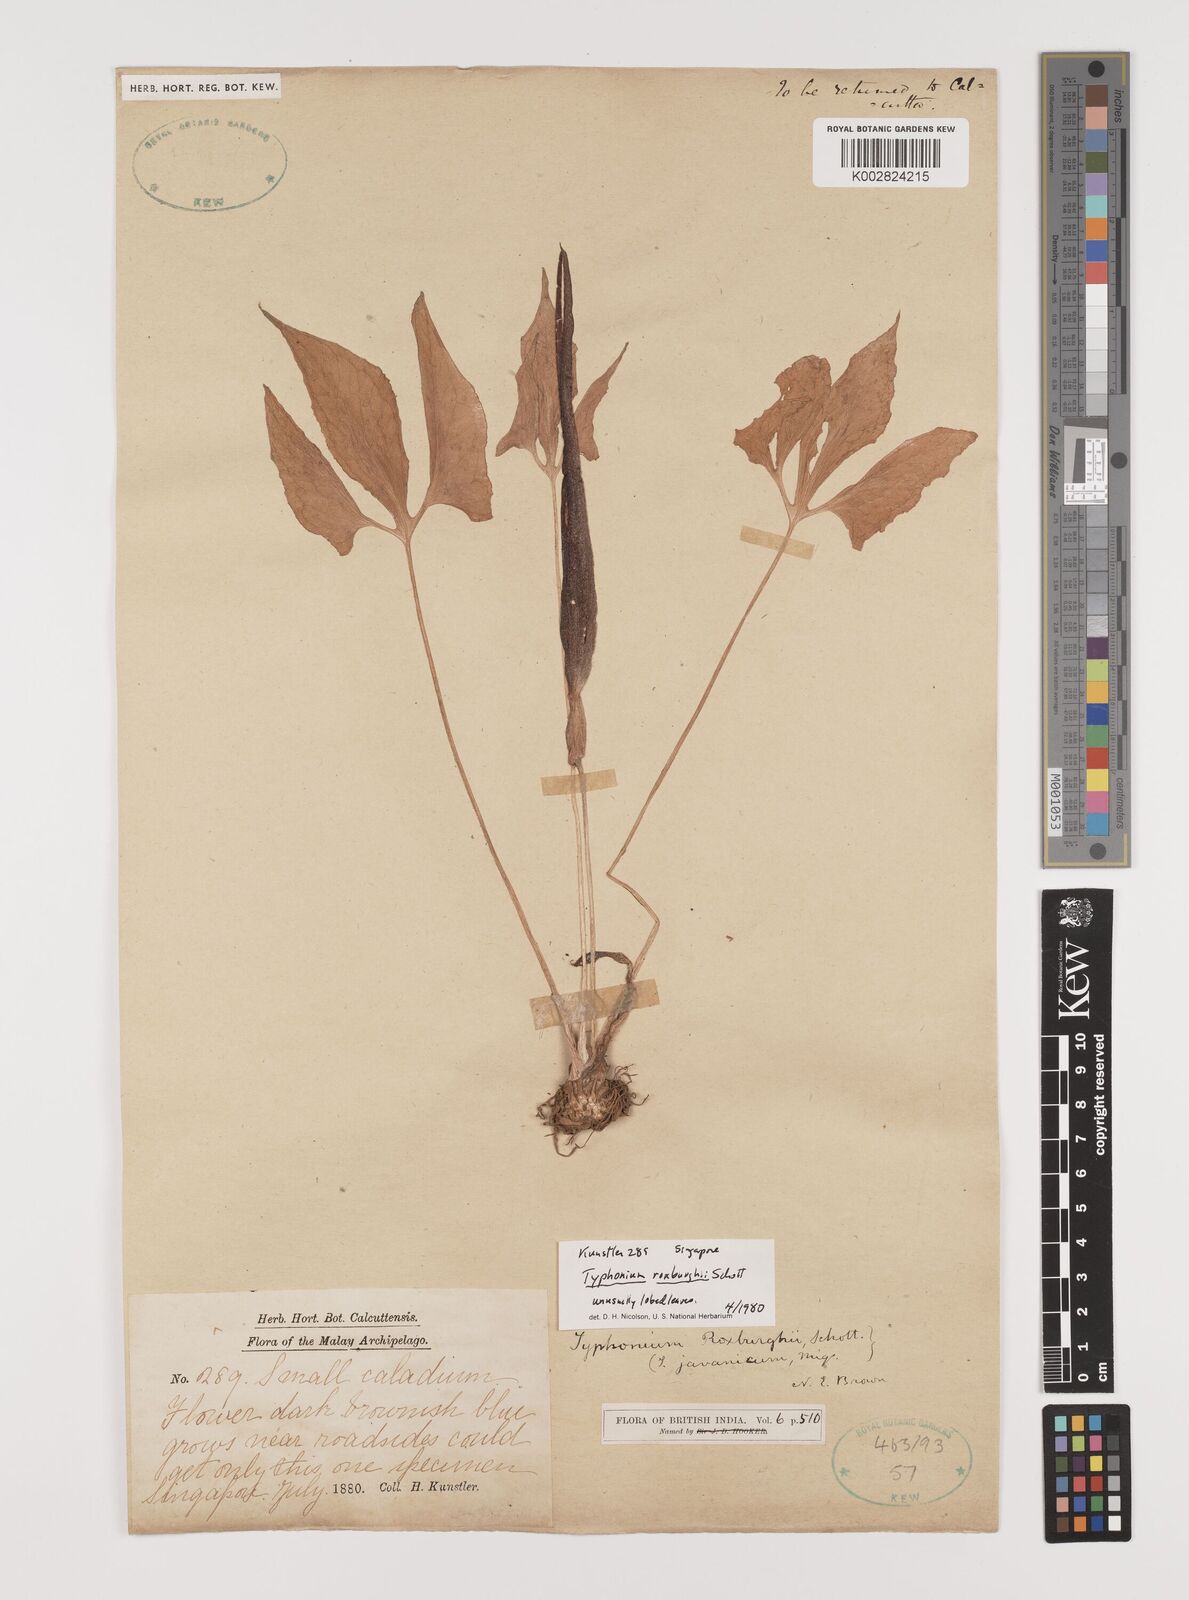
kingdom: Plantae
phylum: Tracheophyta
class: Liliopsida
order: Alismatales
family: Araceae
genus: Typhonium
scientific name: Typhonium roxburghii
